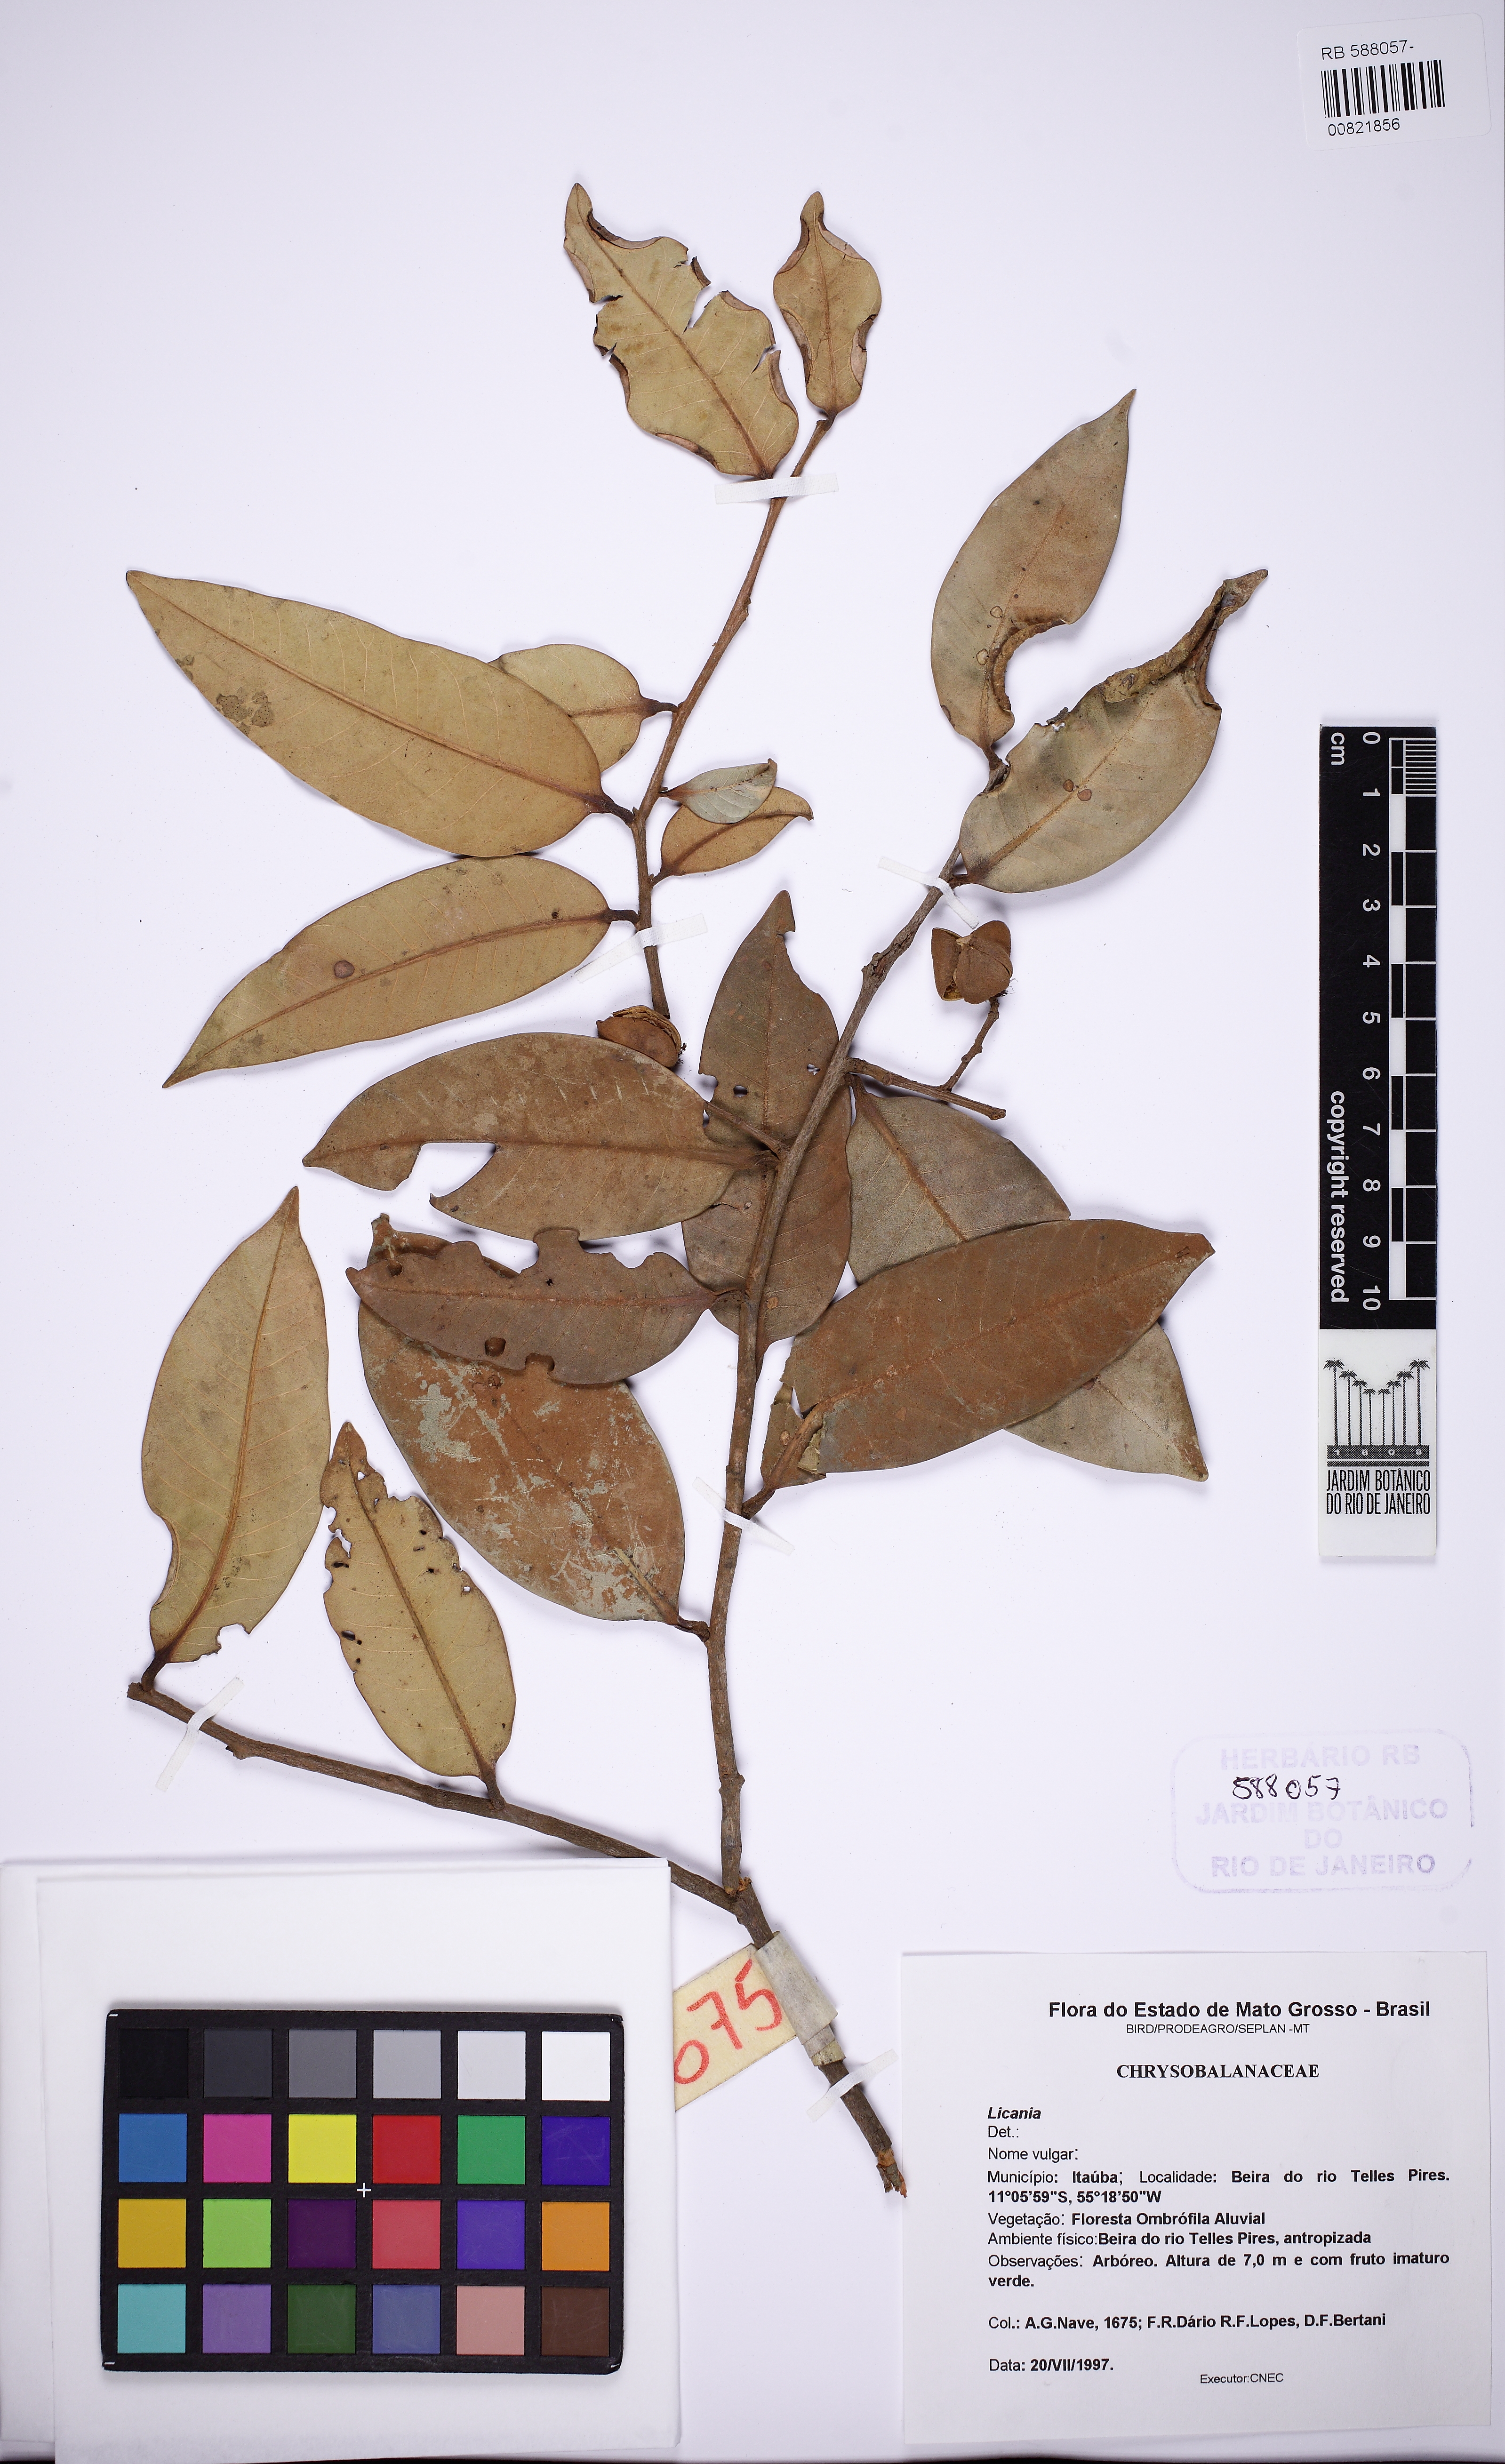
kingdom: Plantae
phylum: Tracheophyta
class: Magnoliopsida
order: Malpighiales
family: Calophyllaceae
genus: Caraipa
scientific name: Caraipa
